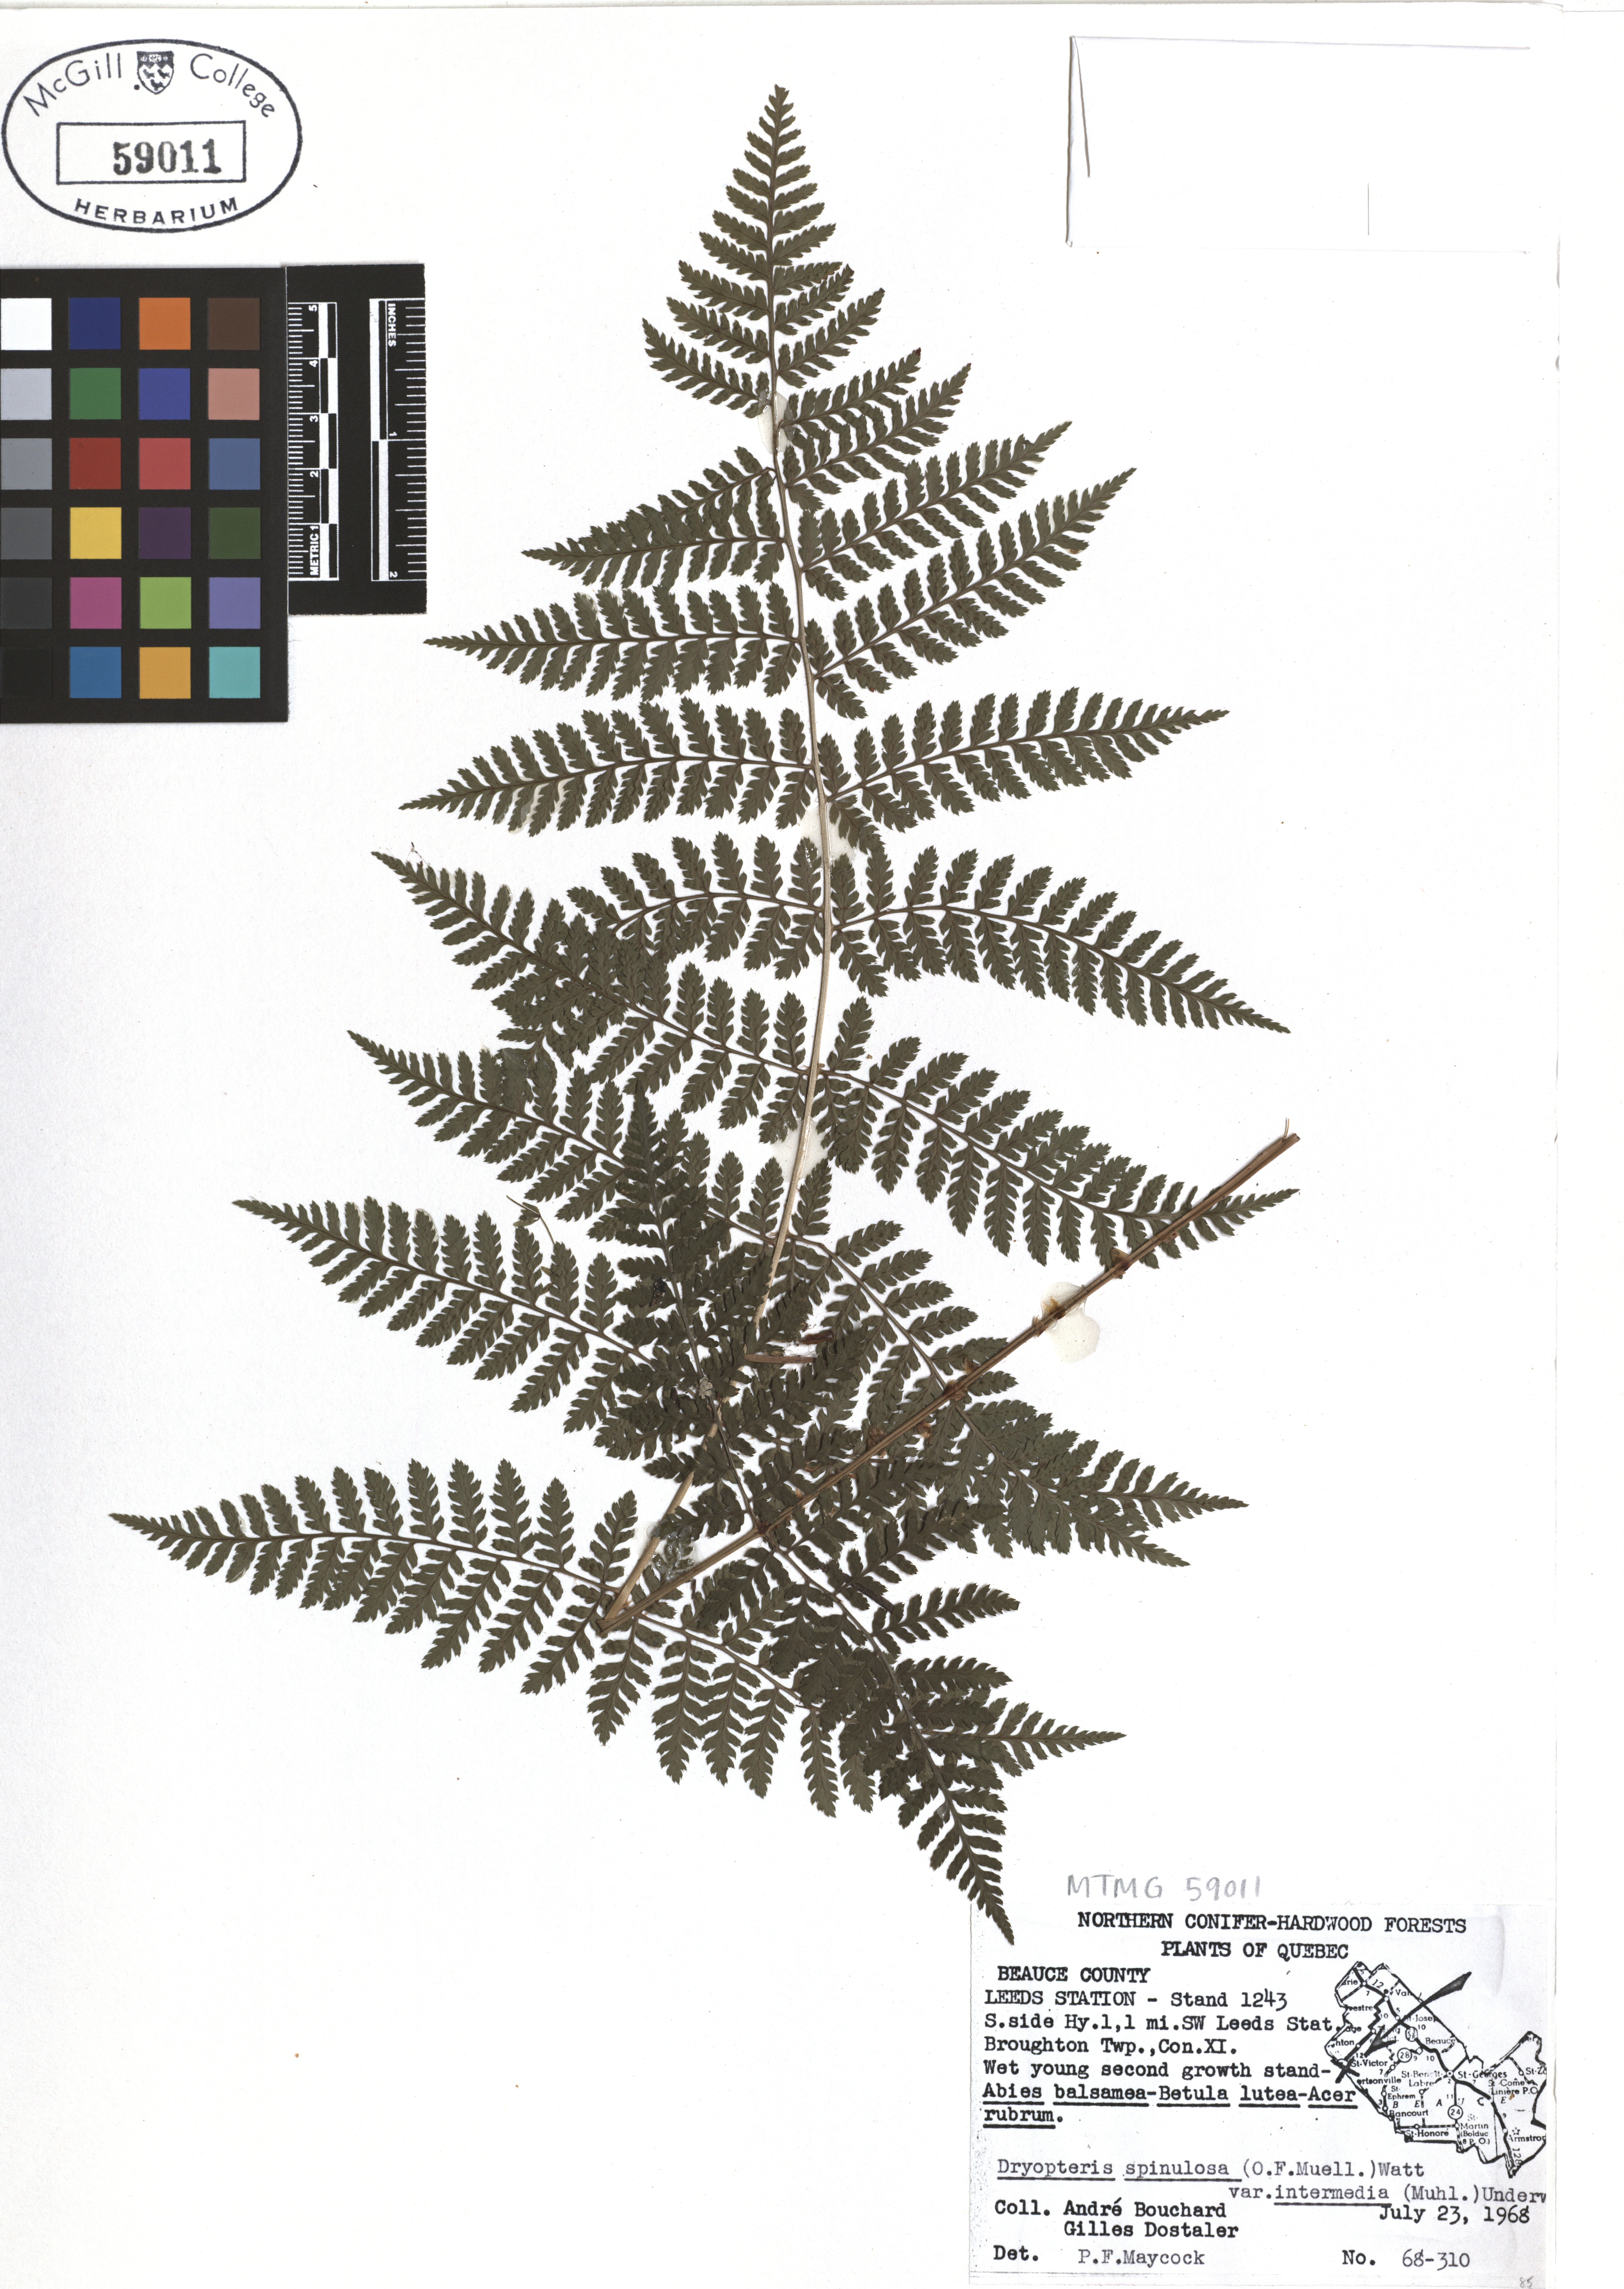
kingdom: Plantae
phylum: Tracheophyta
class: Polypodiopsida
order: Polypodiales
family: Dryopteridaceae
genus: Dryopteris
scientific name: Dryopteris intermedia
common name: Evergreen wood fern
